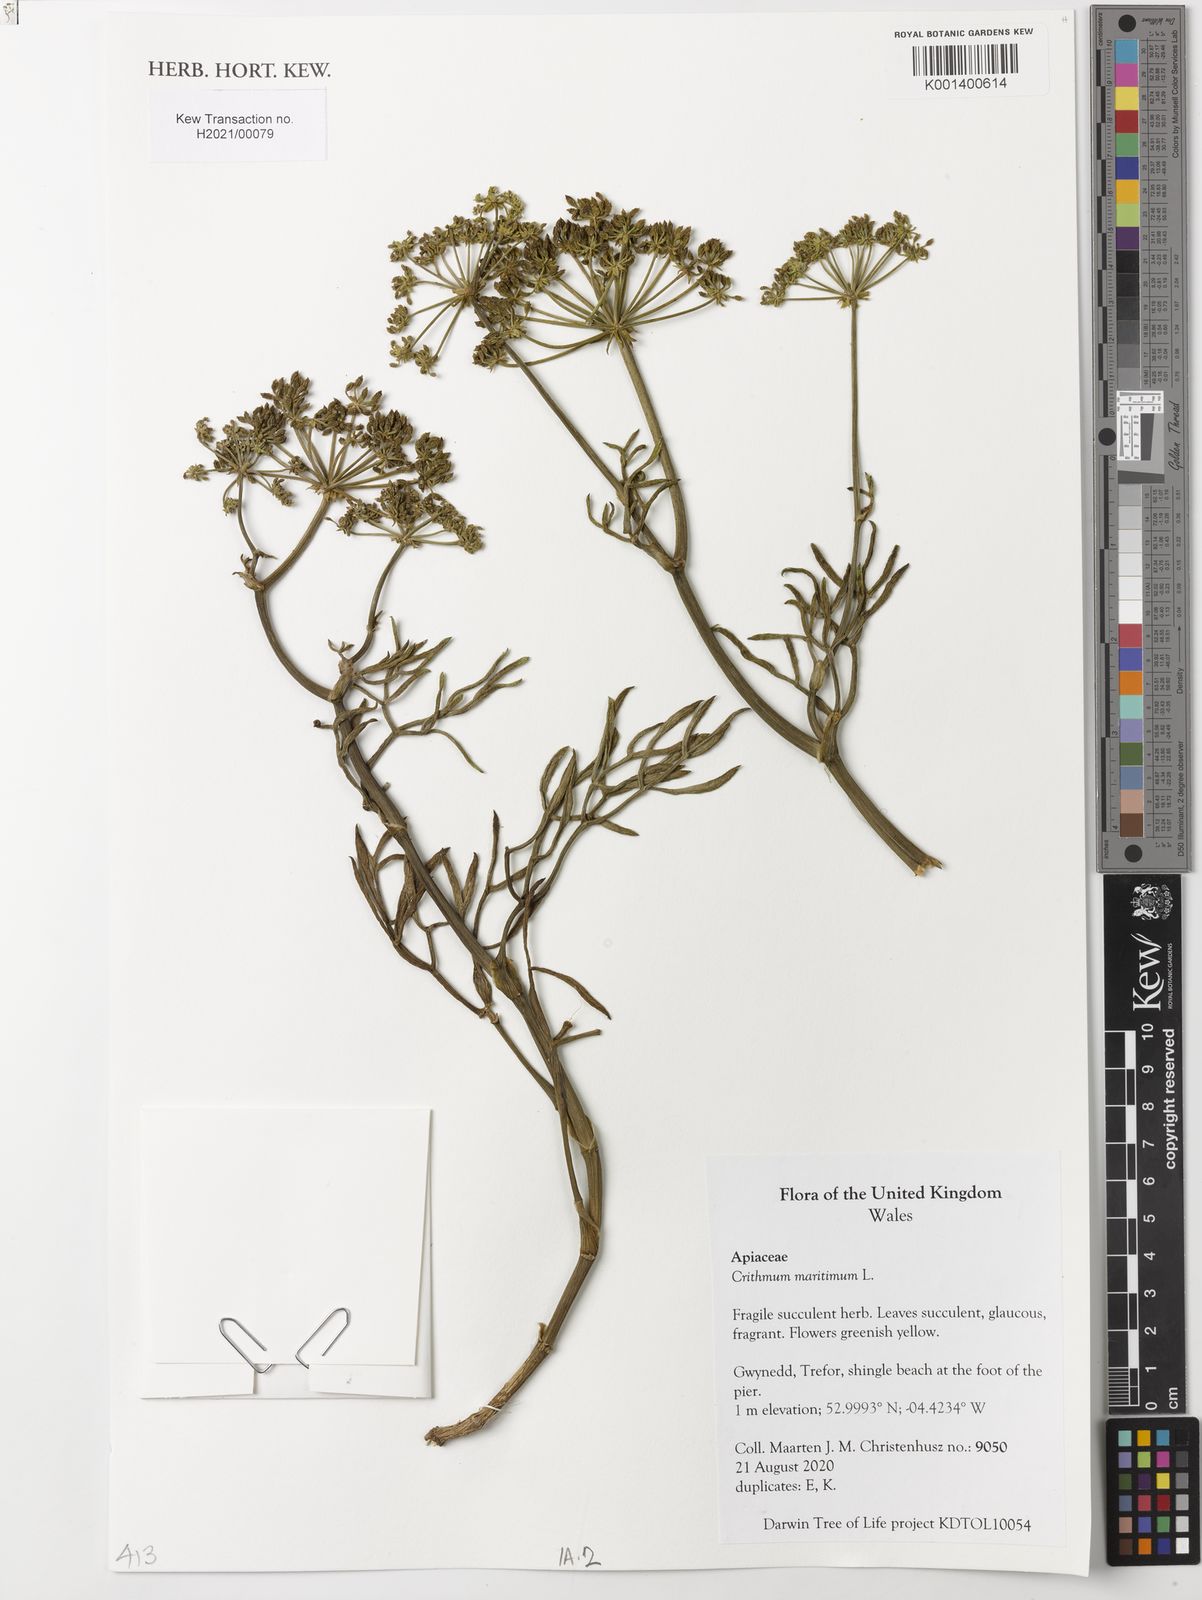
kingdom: Plantae
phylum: Tracheophyta
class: Magnoliopsida
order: Apiales
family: Apiaceae
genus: Crithmum
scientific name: Crithmum maritimum
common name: Rock samphire
